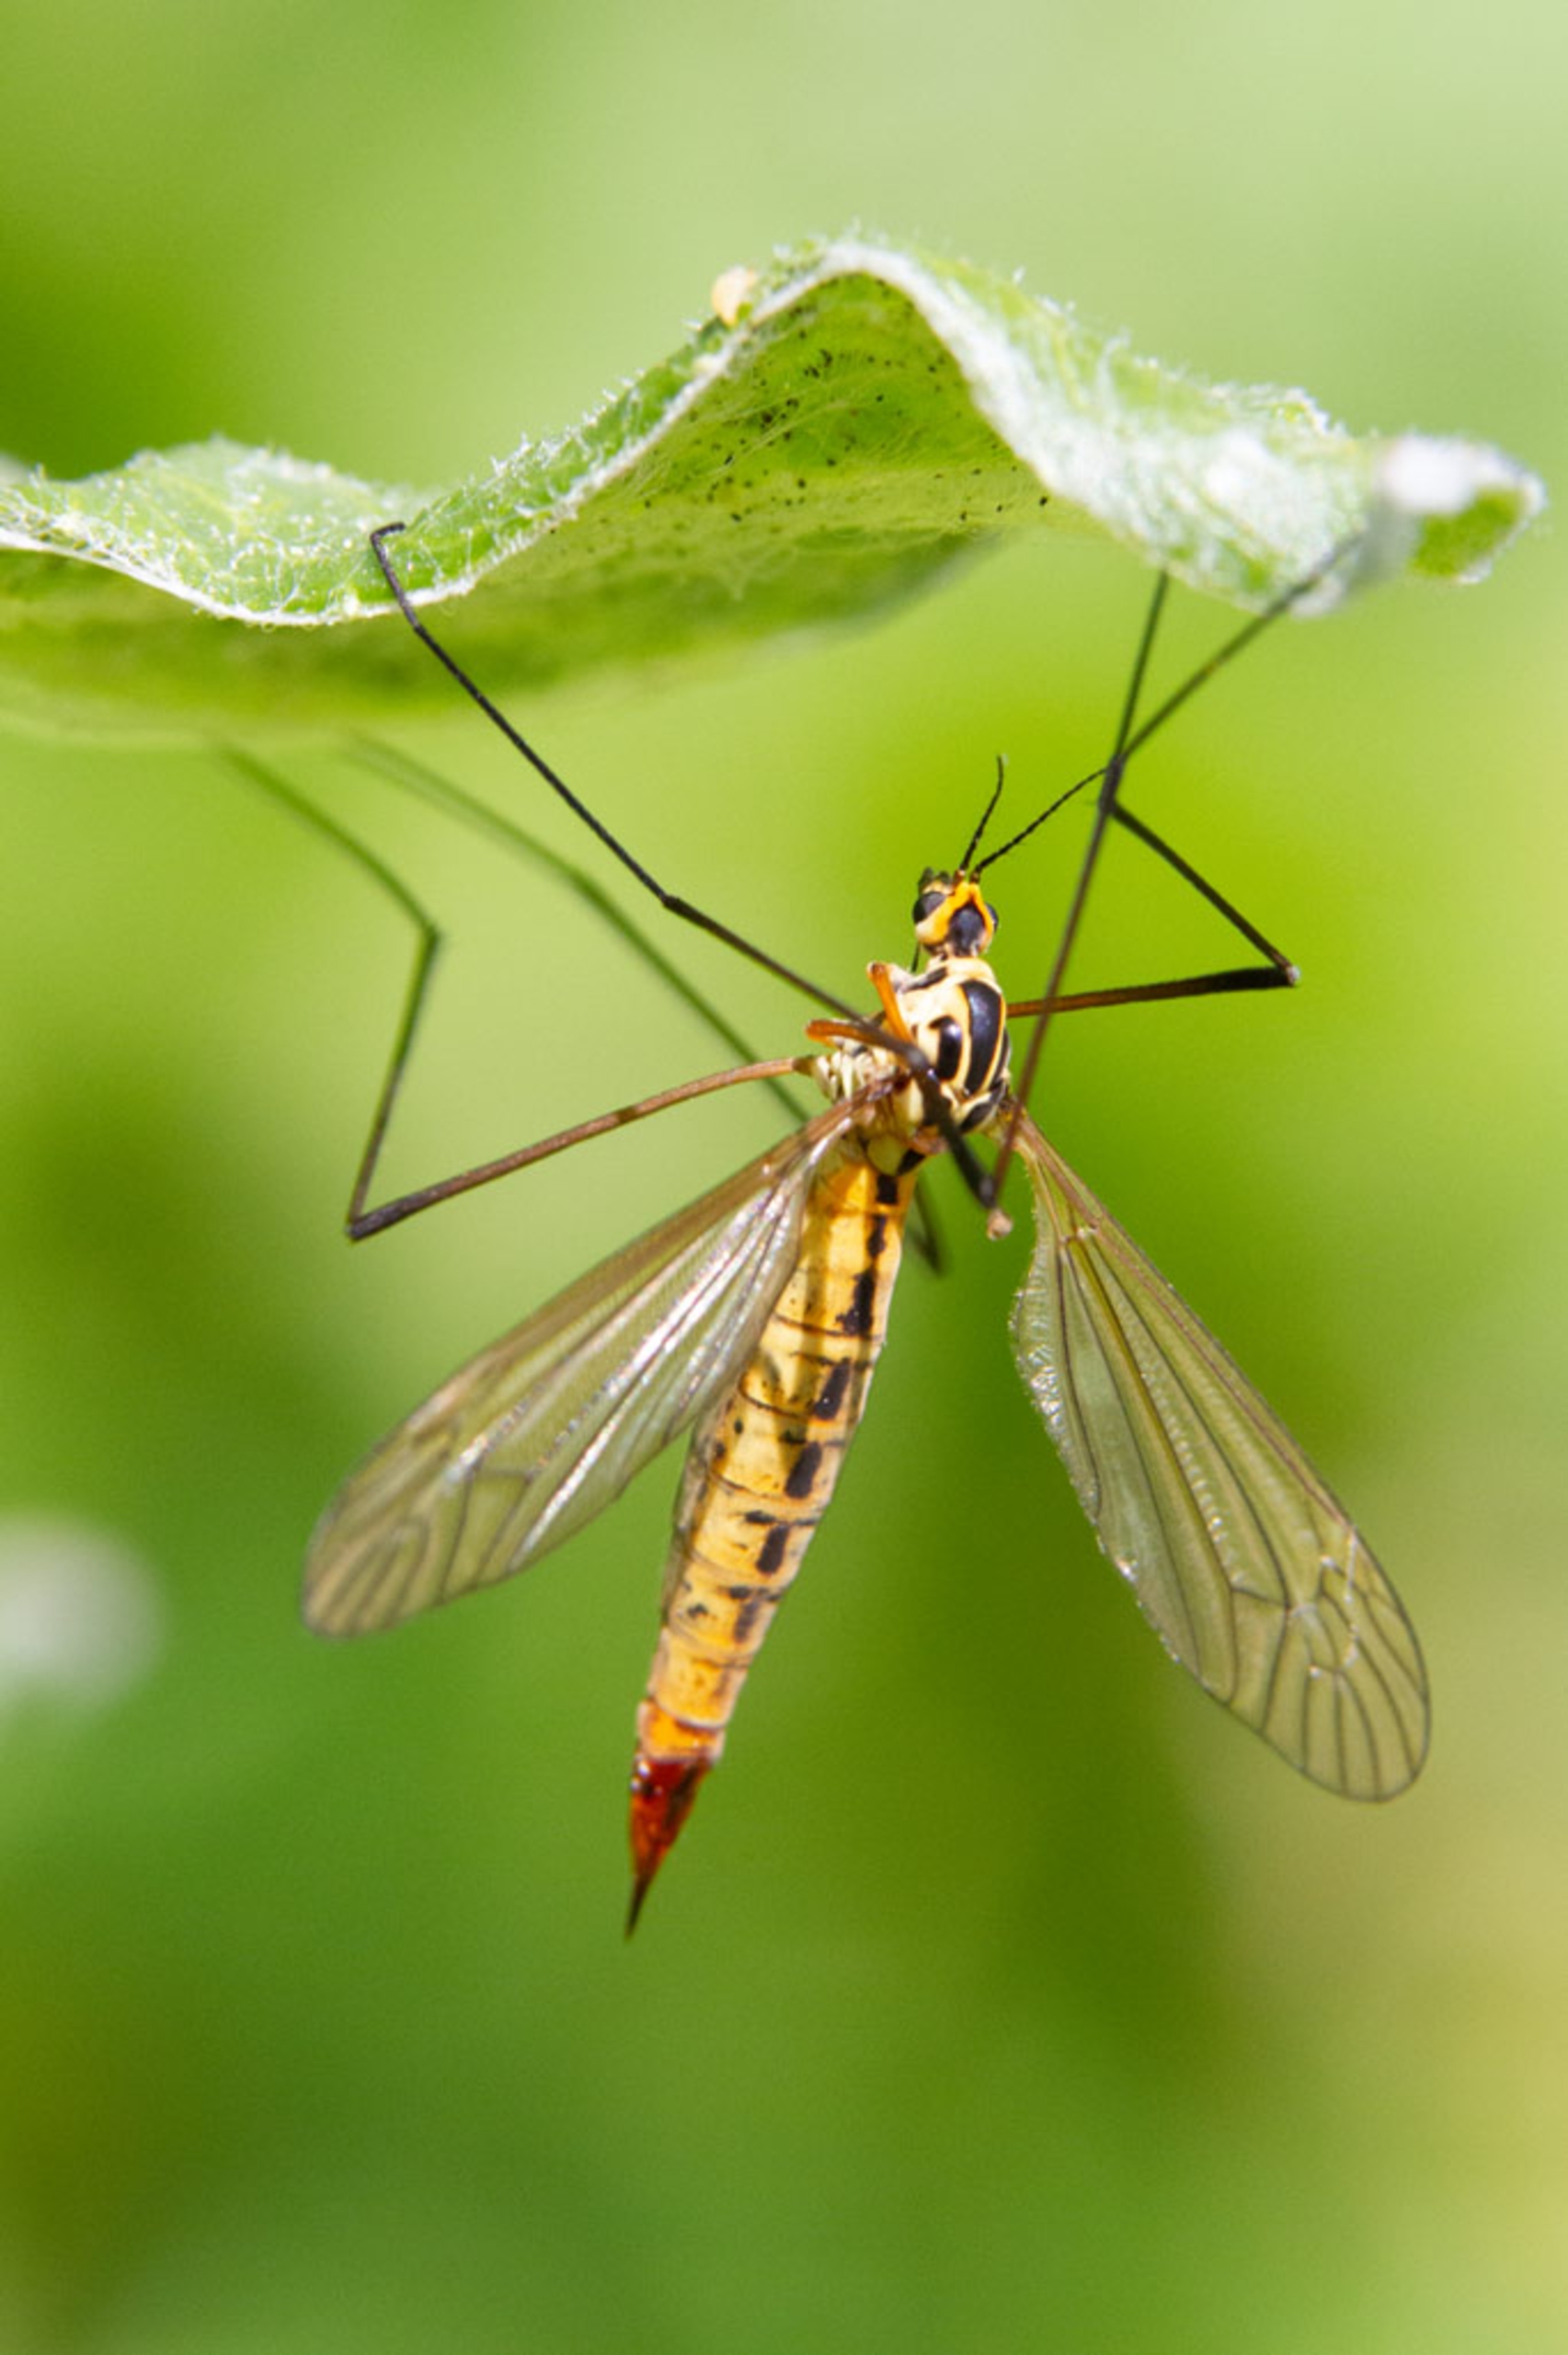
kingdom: Animalia
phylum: Arthropoda
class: Insecta
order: Diptera
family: Tipulidae
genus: Nephrotoma
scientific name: Nephrotoma flavescens
